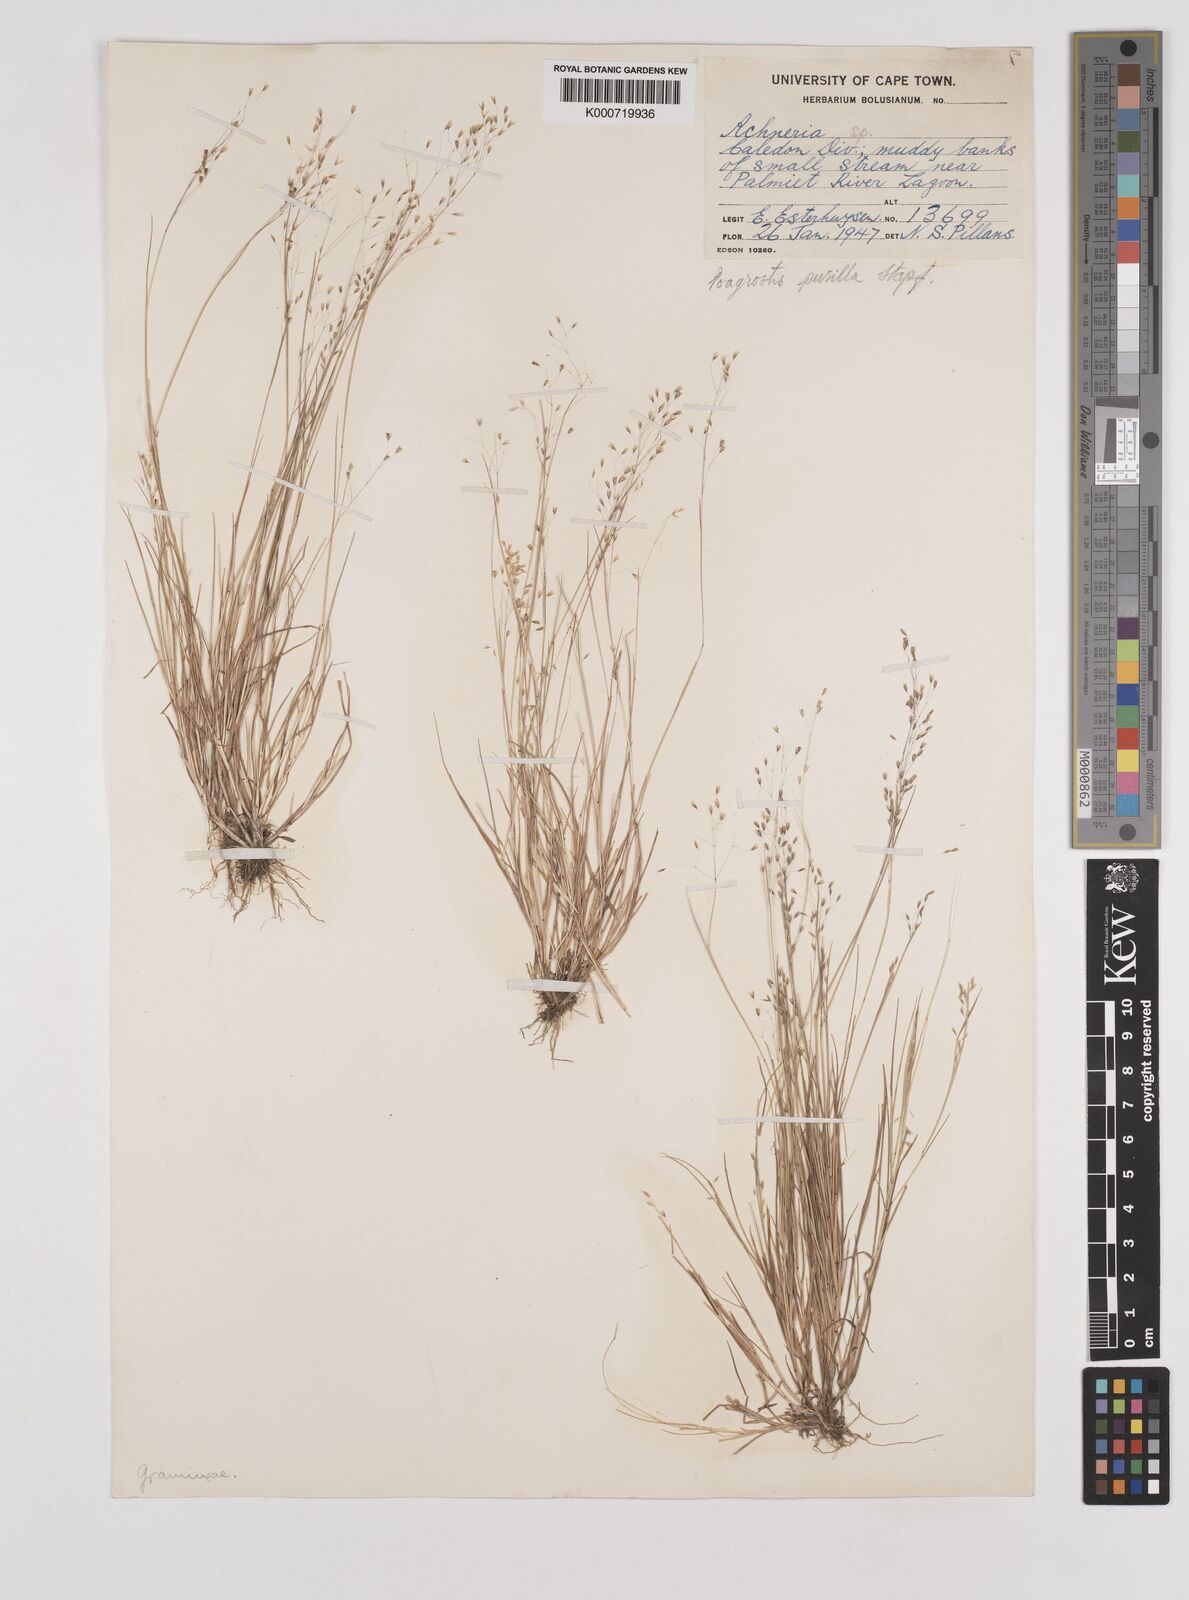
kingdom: Plantae
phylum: Tracheophyta
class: Liliopsida
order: Poales
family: Poaceae
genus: Pentameris
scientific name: Pentameris pusilla
